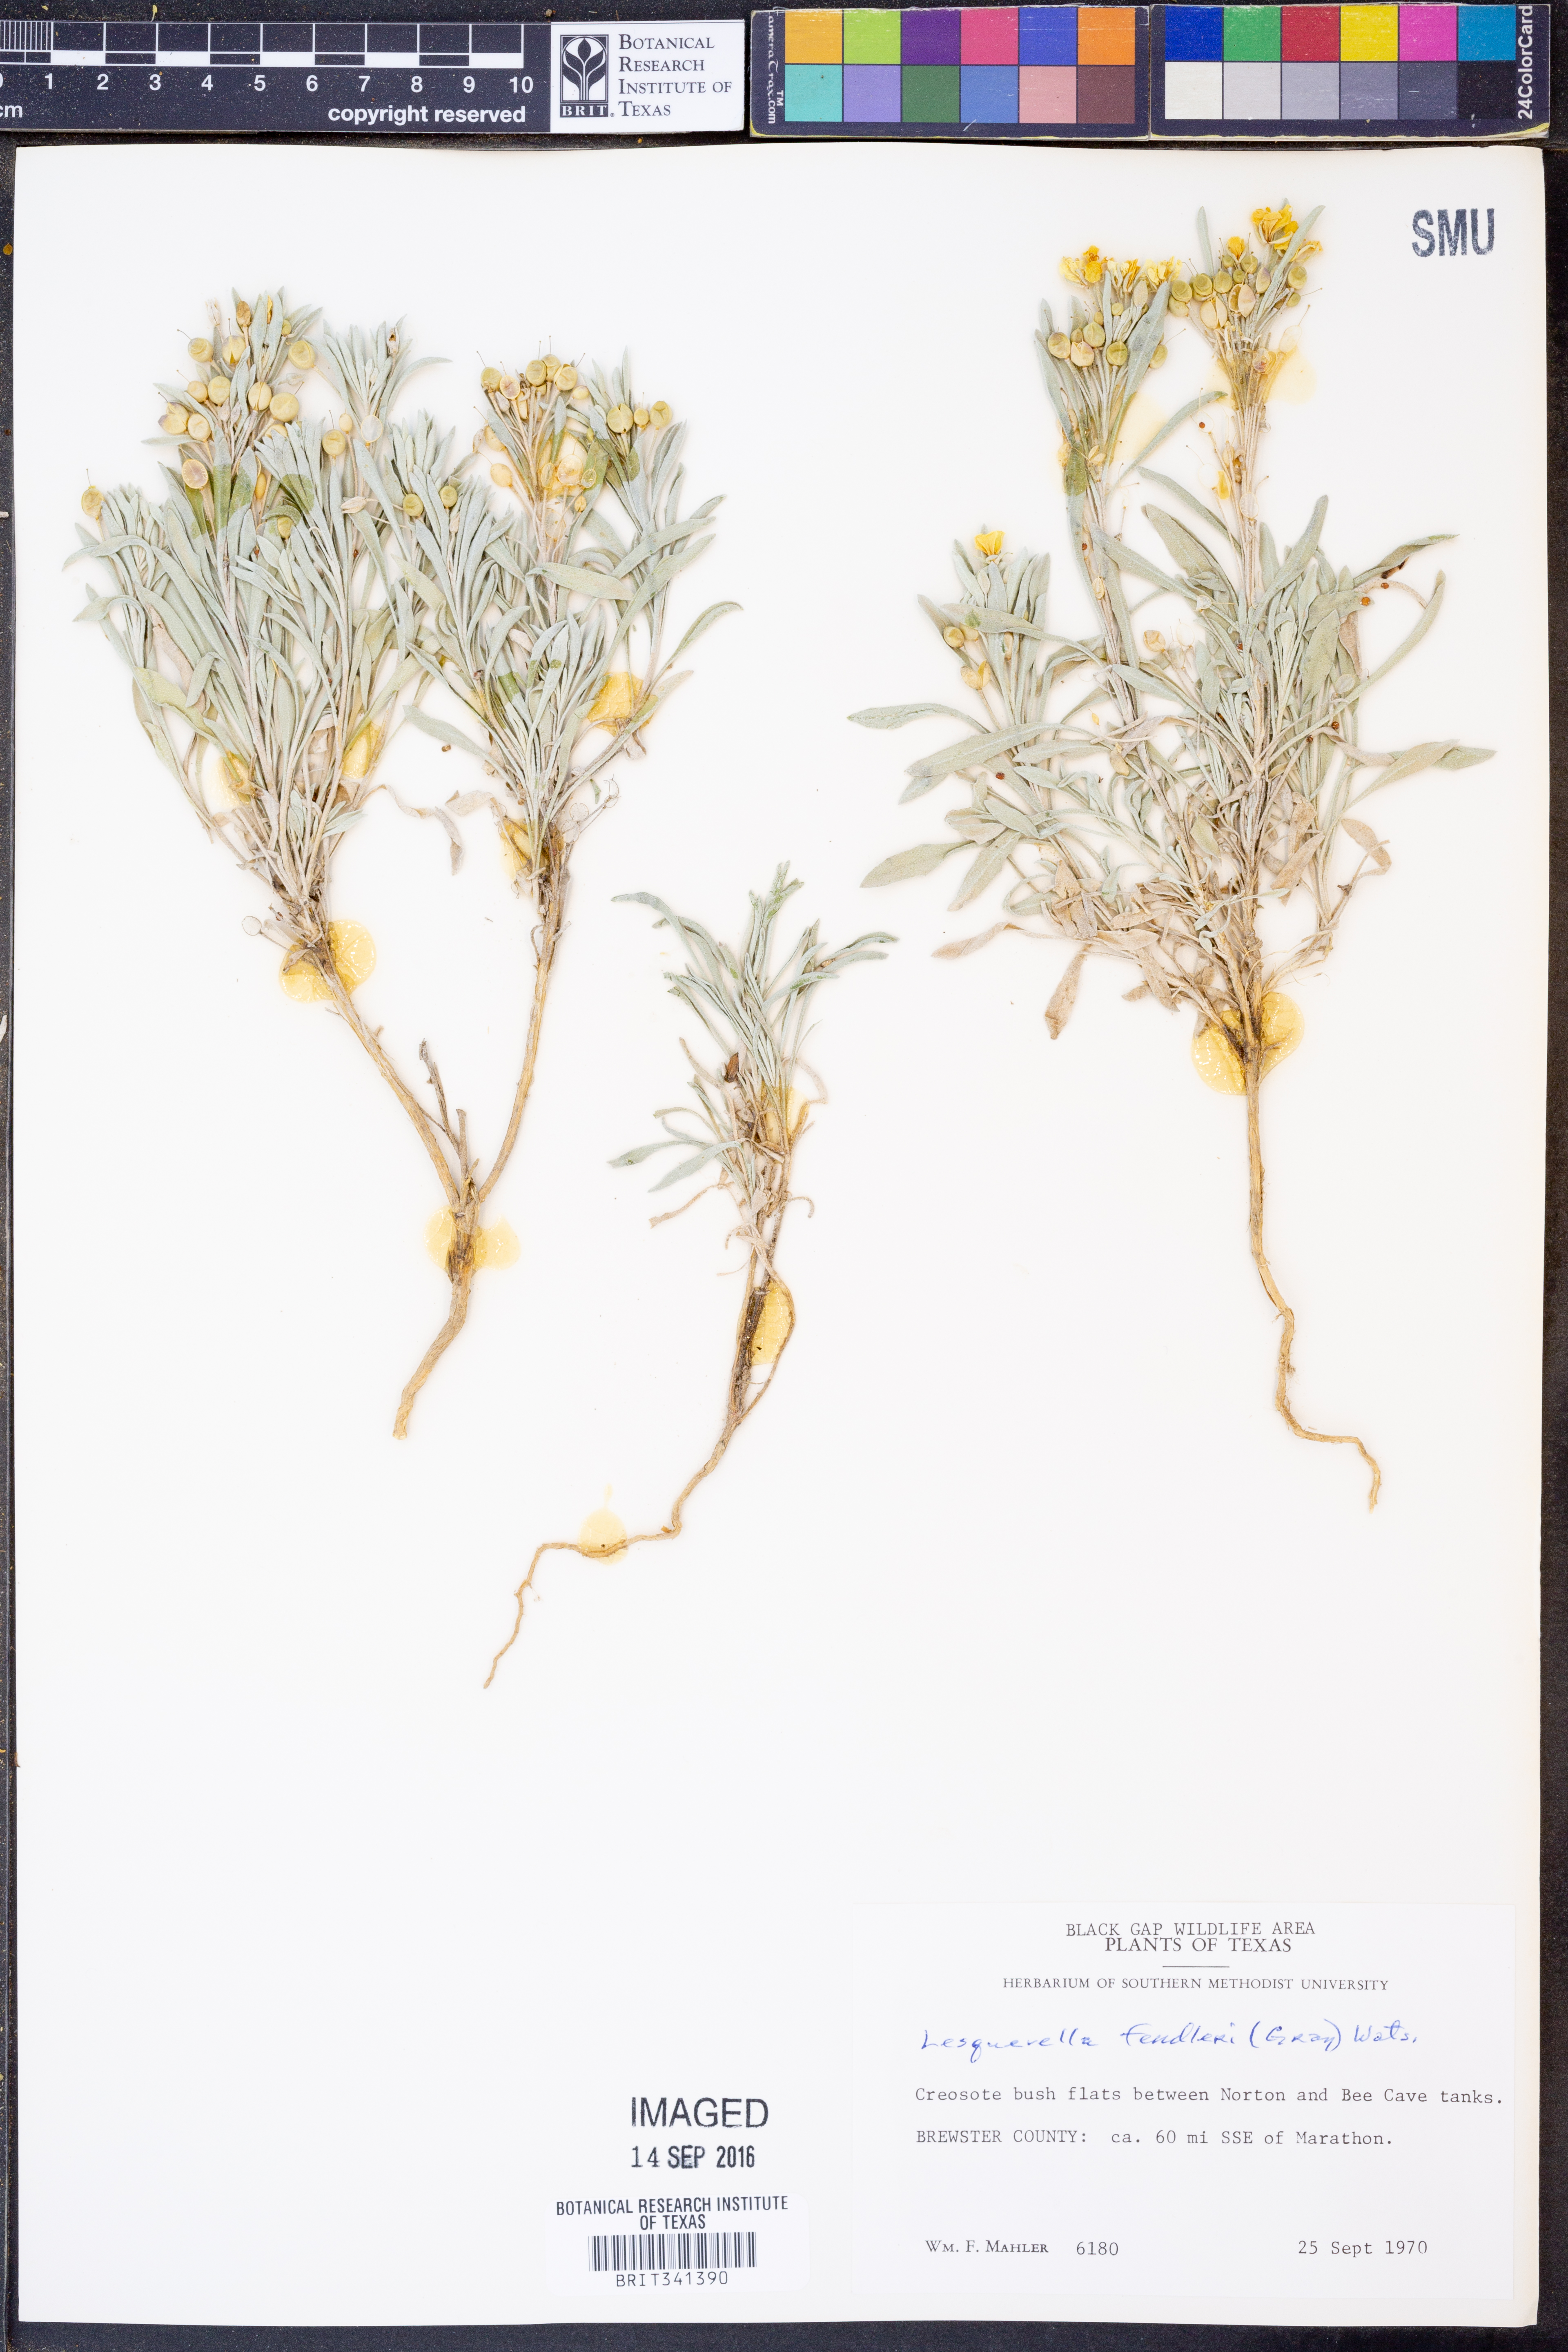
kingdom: Plantae
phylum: Tracheophyta
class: Magnoliopsida
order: Brassicales
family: Brassicaceae
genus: Physaria
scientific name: Physaria fendleri
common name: Fendler's bladderpod
